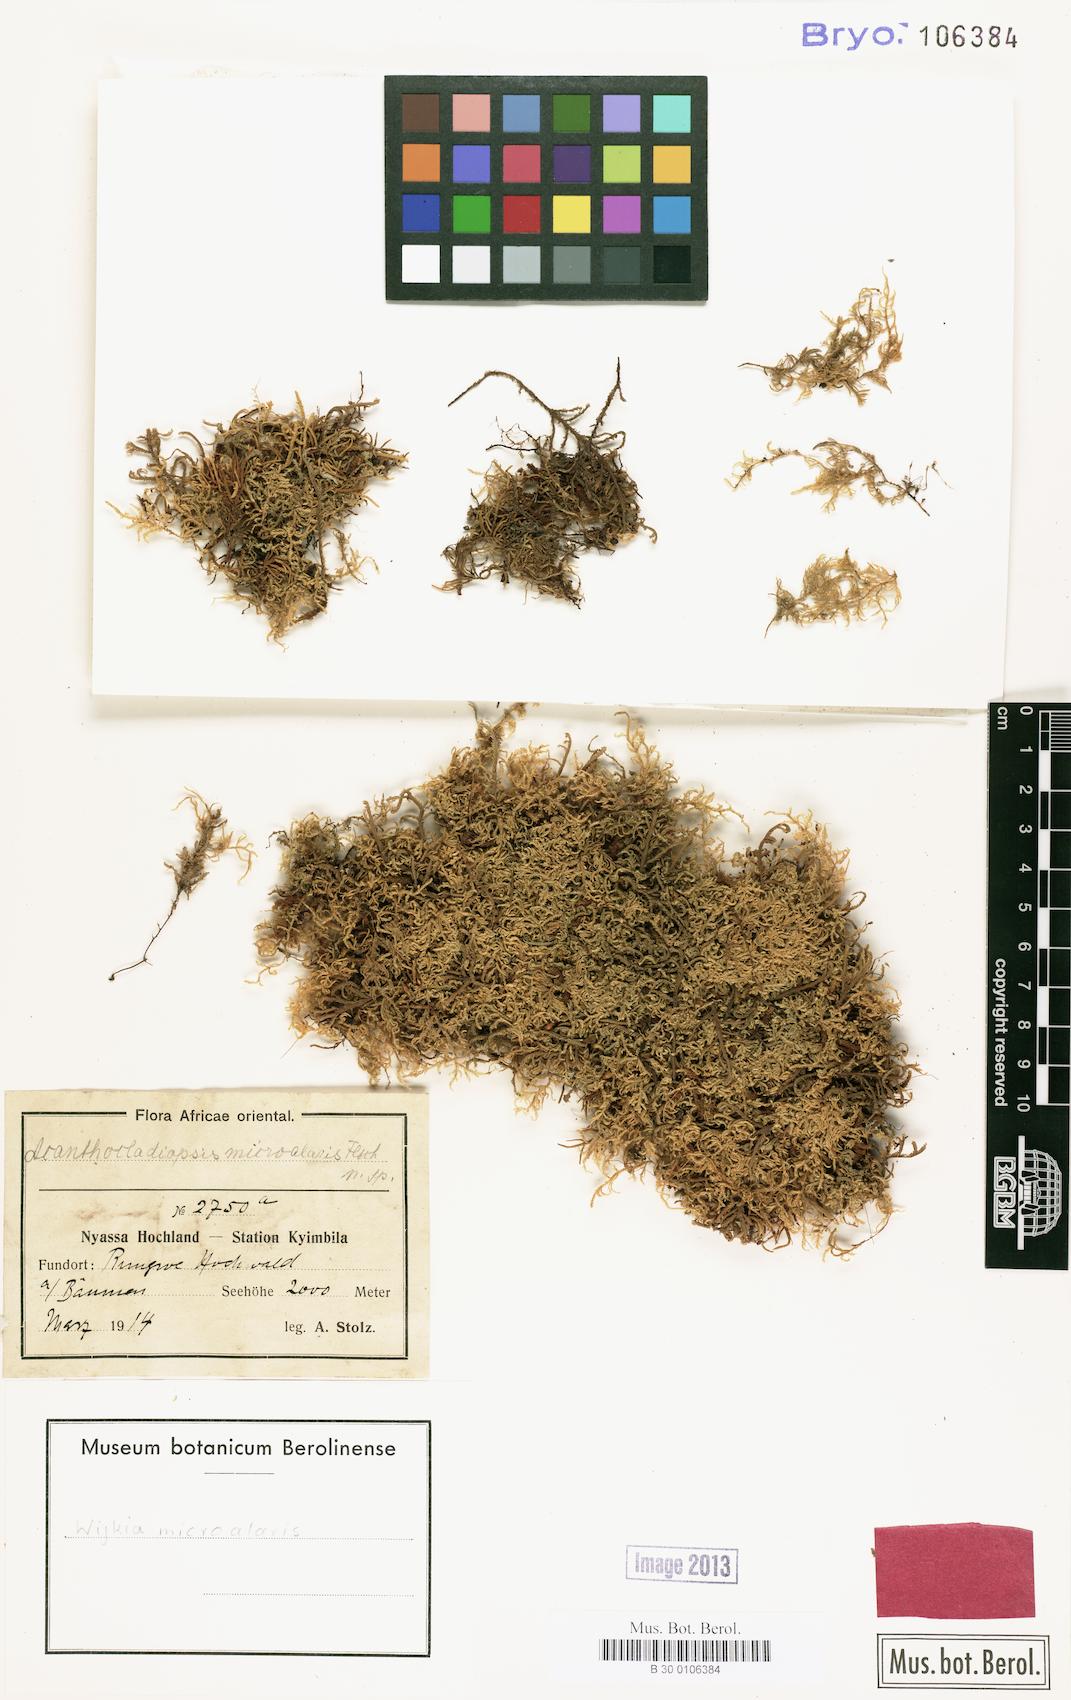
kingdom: Plantae
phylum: Bryophyta
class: Bryopsida
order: Hypnales
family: Pylaisiadelphaceae
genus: Wijkia
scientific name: Wijkia
